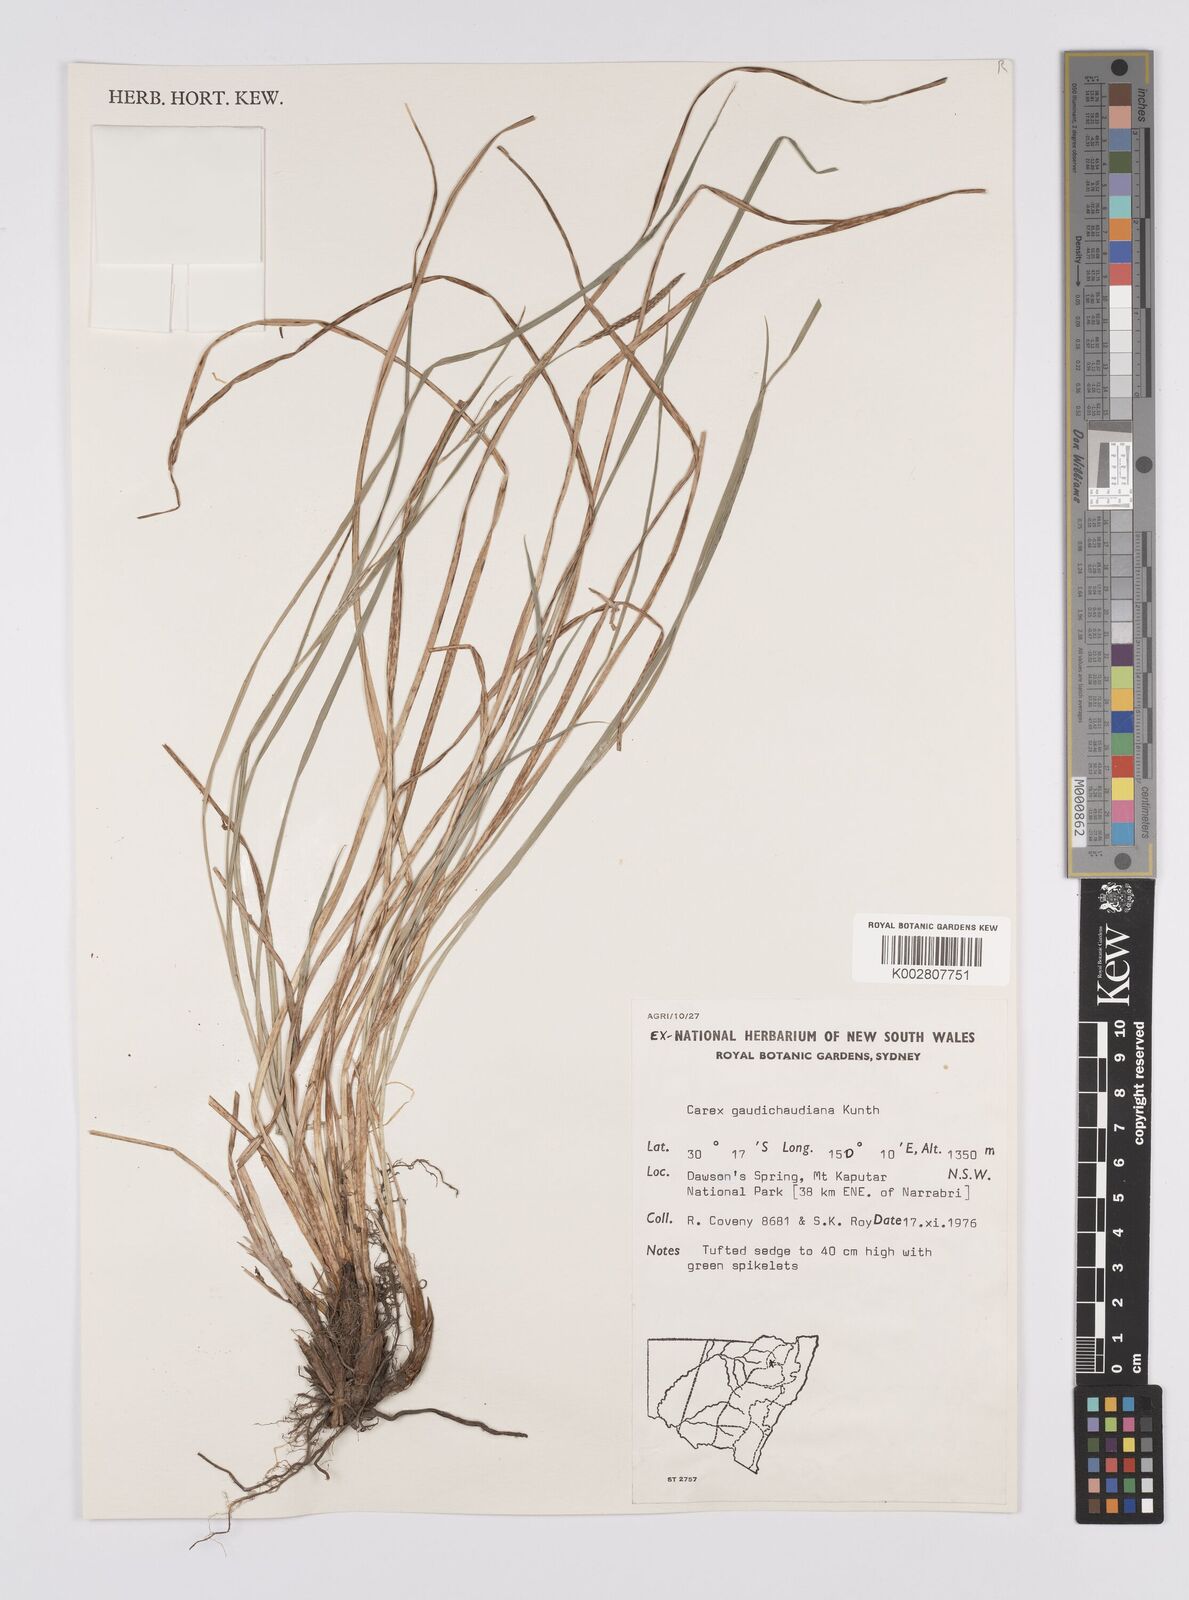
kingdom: Plantae
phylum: Tracheophyta
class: Liliopsida
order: Poales
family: Cyperaceae
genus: Carex
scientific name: Carex gaudichaudiana
